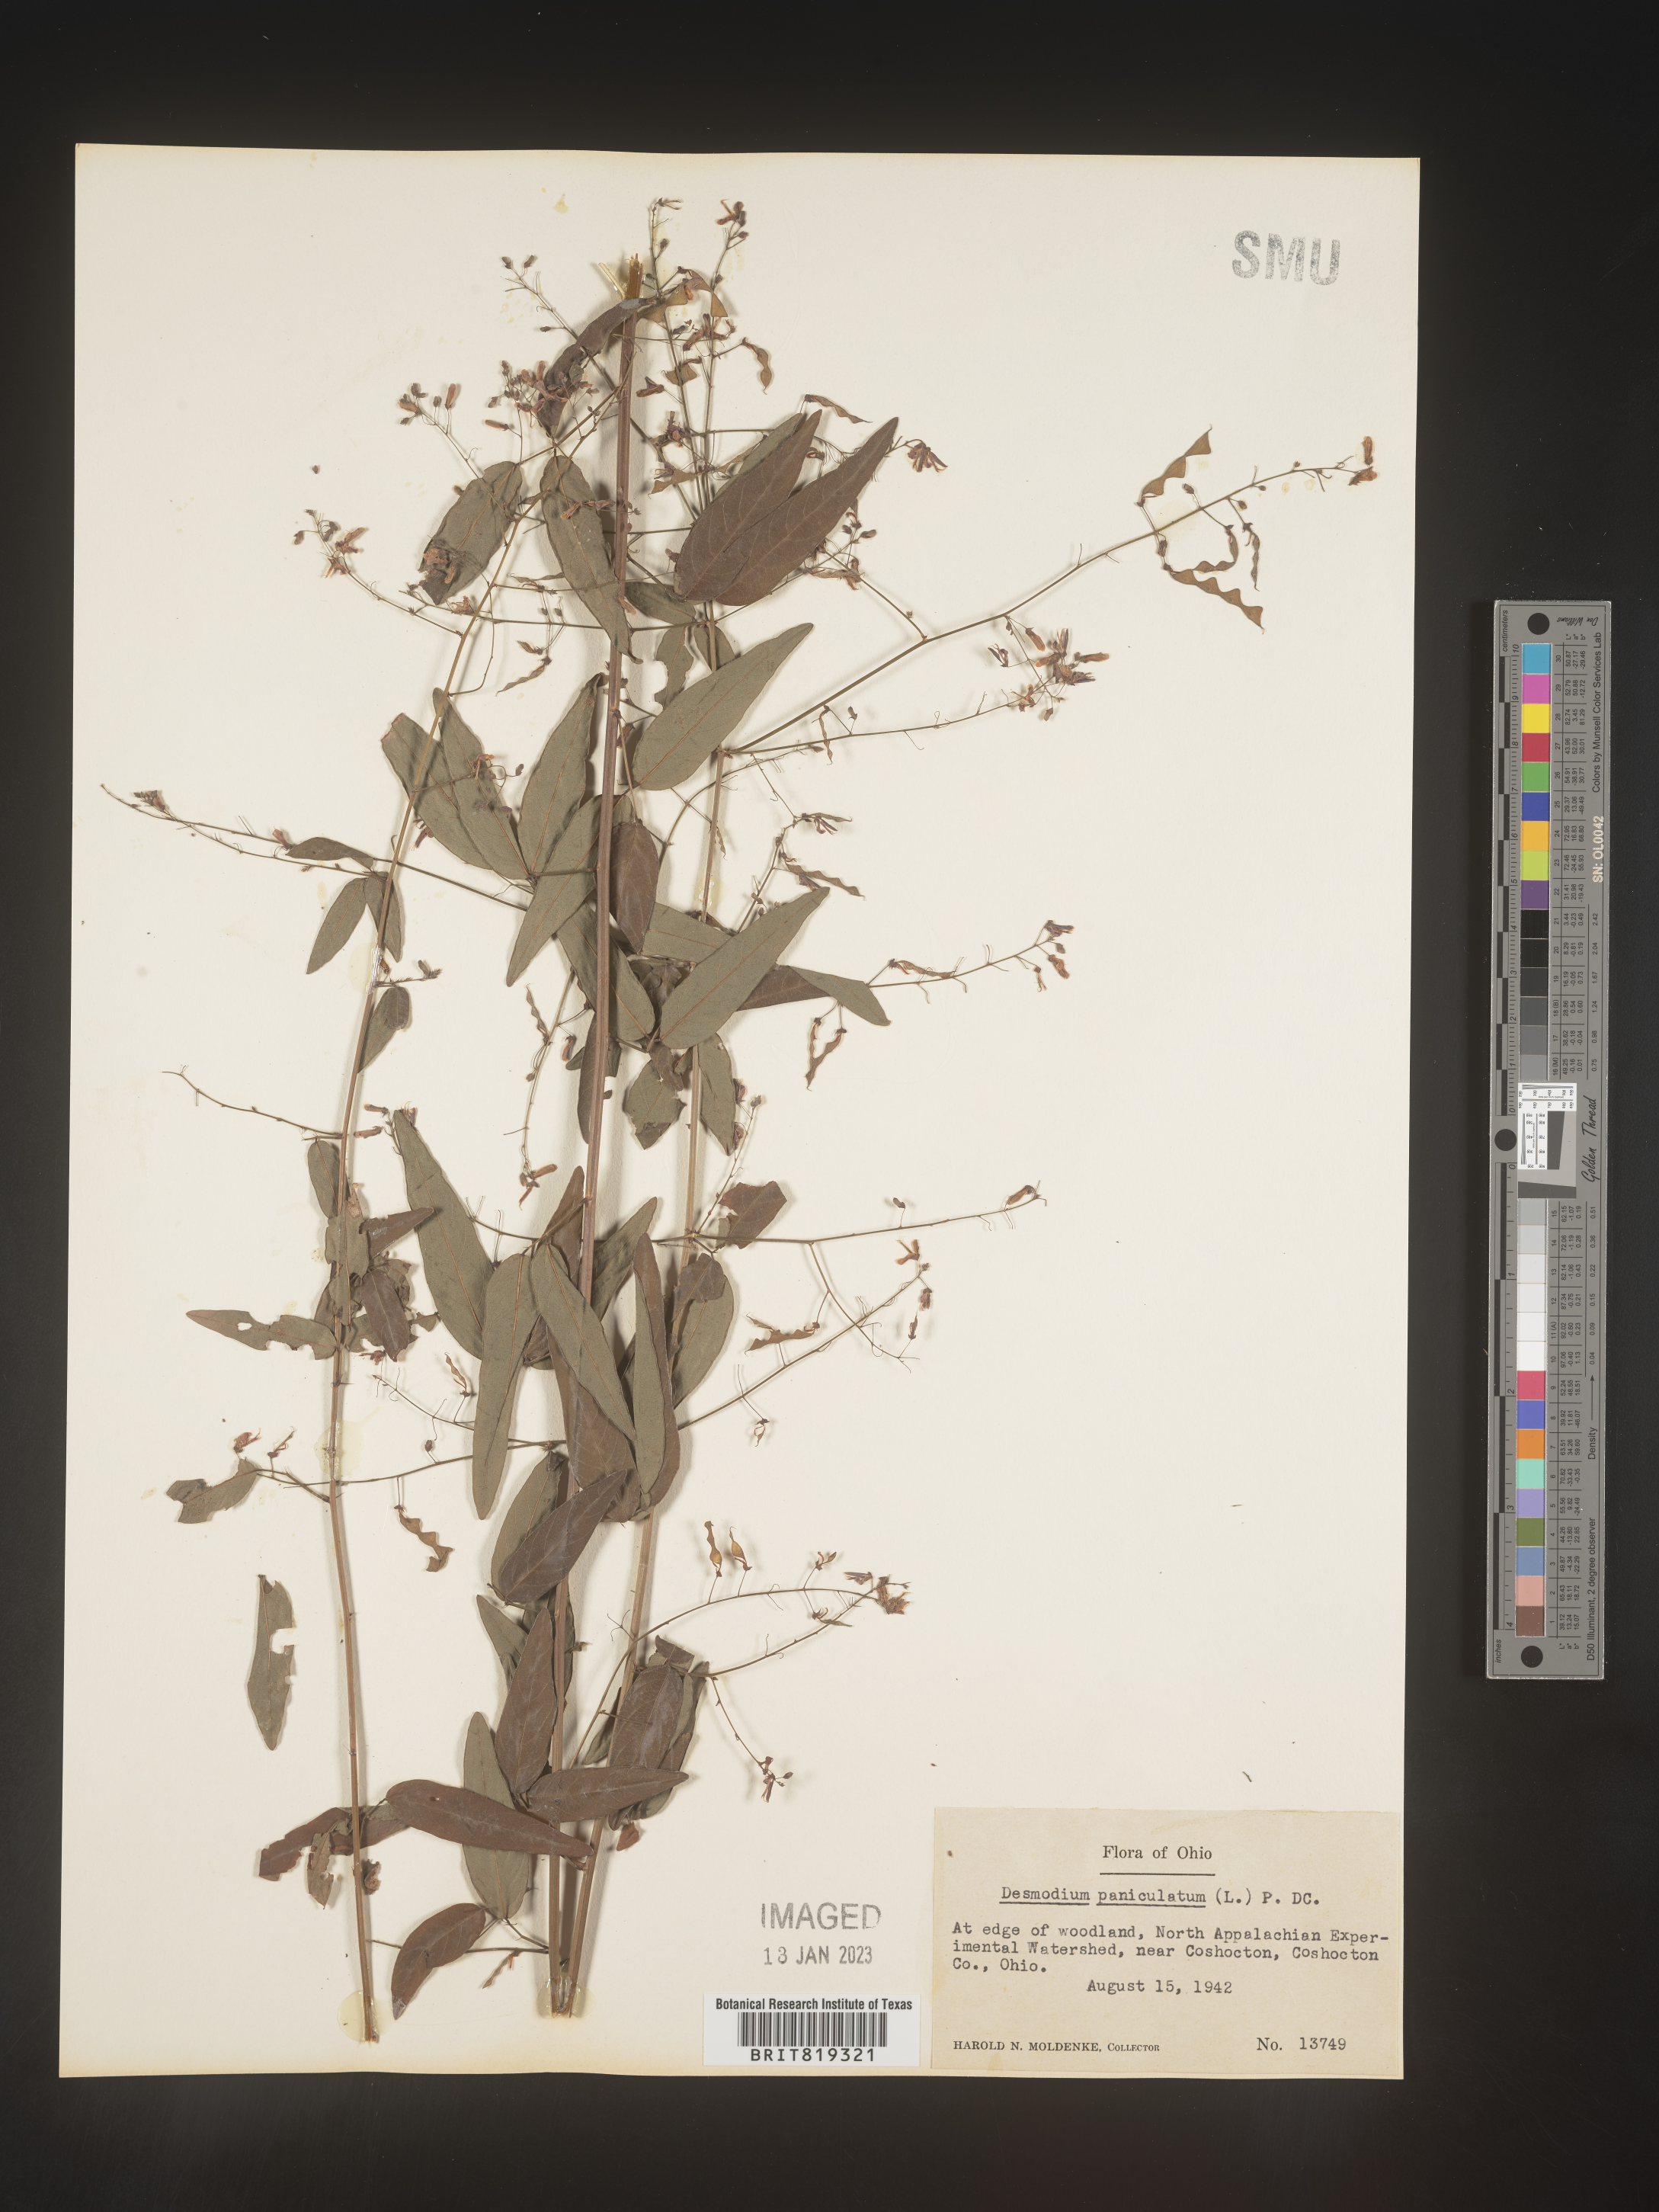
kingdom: Plantae
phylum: Tracheophyta
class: Magnoliopsida
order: Fabales
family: Fabaceae
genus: Desmodium
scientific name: Desmodium paniculatum
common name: Panicled tick-clover
